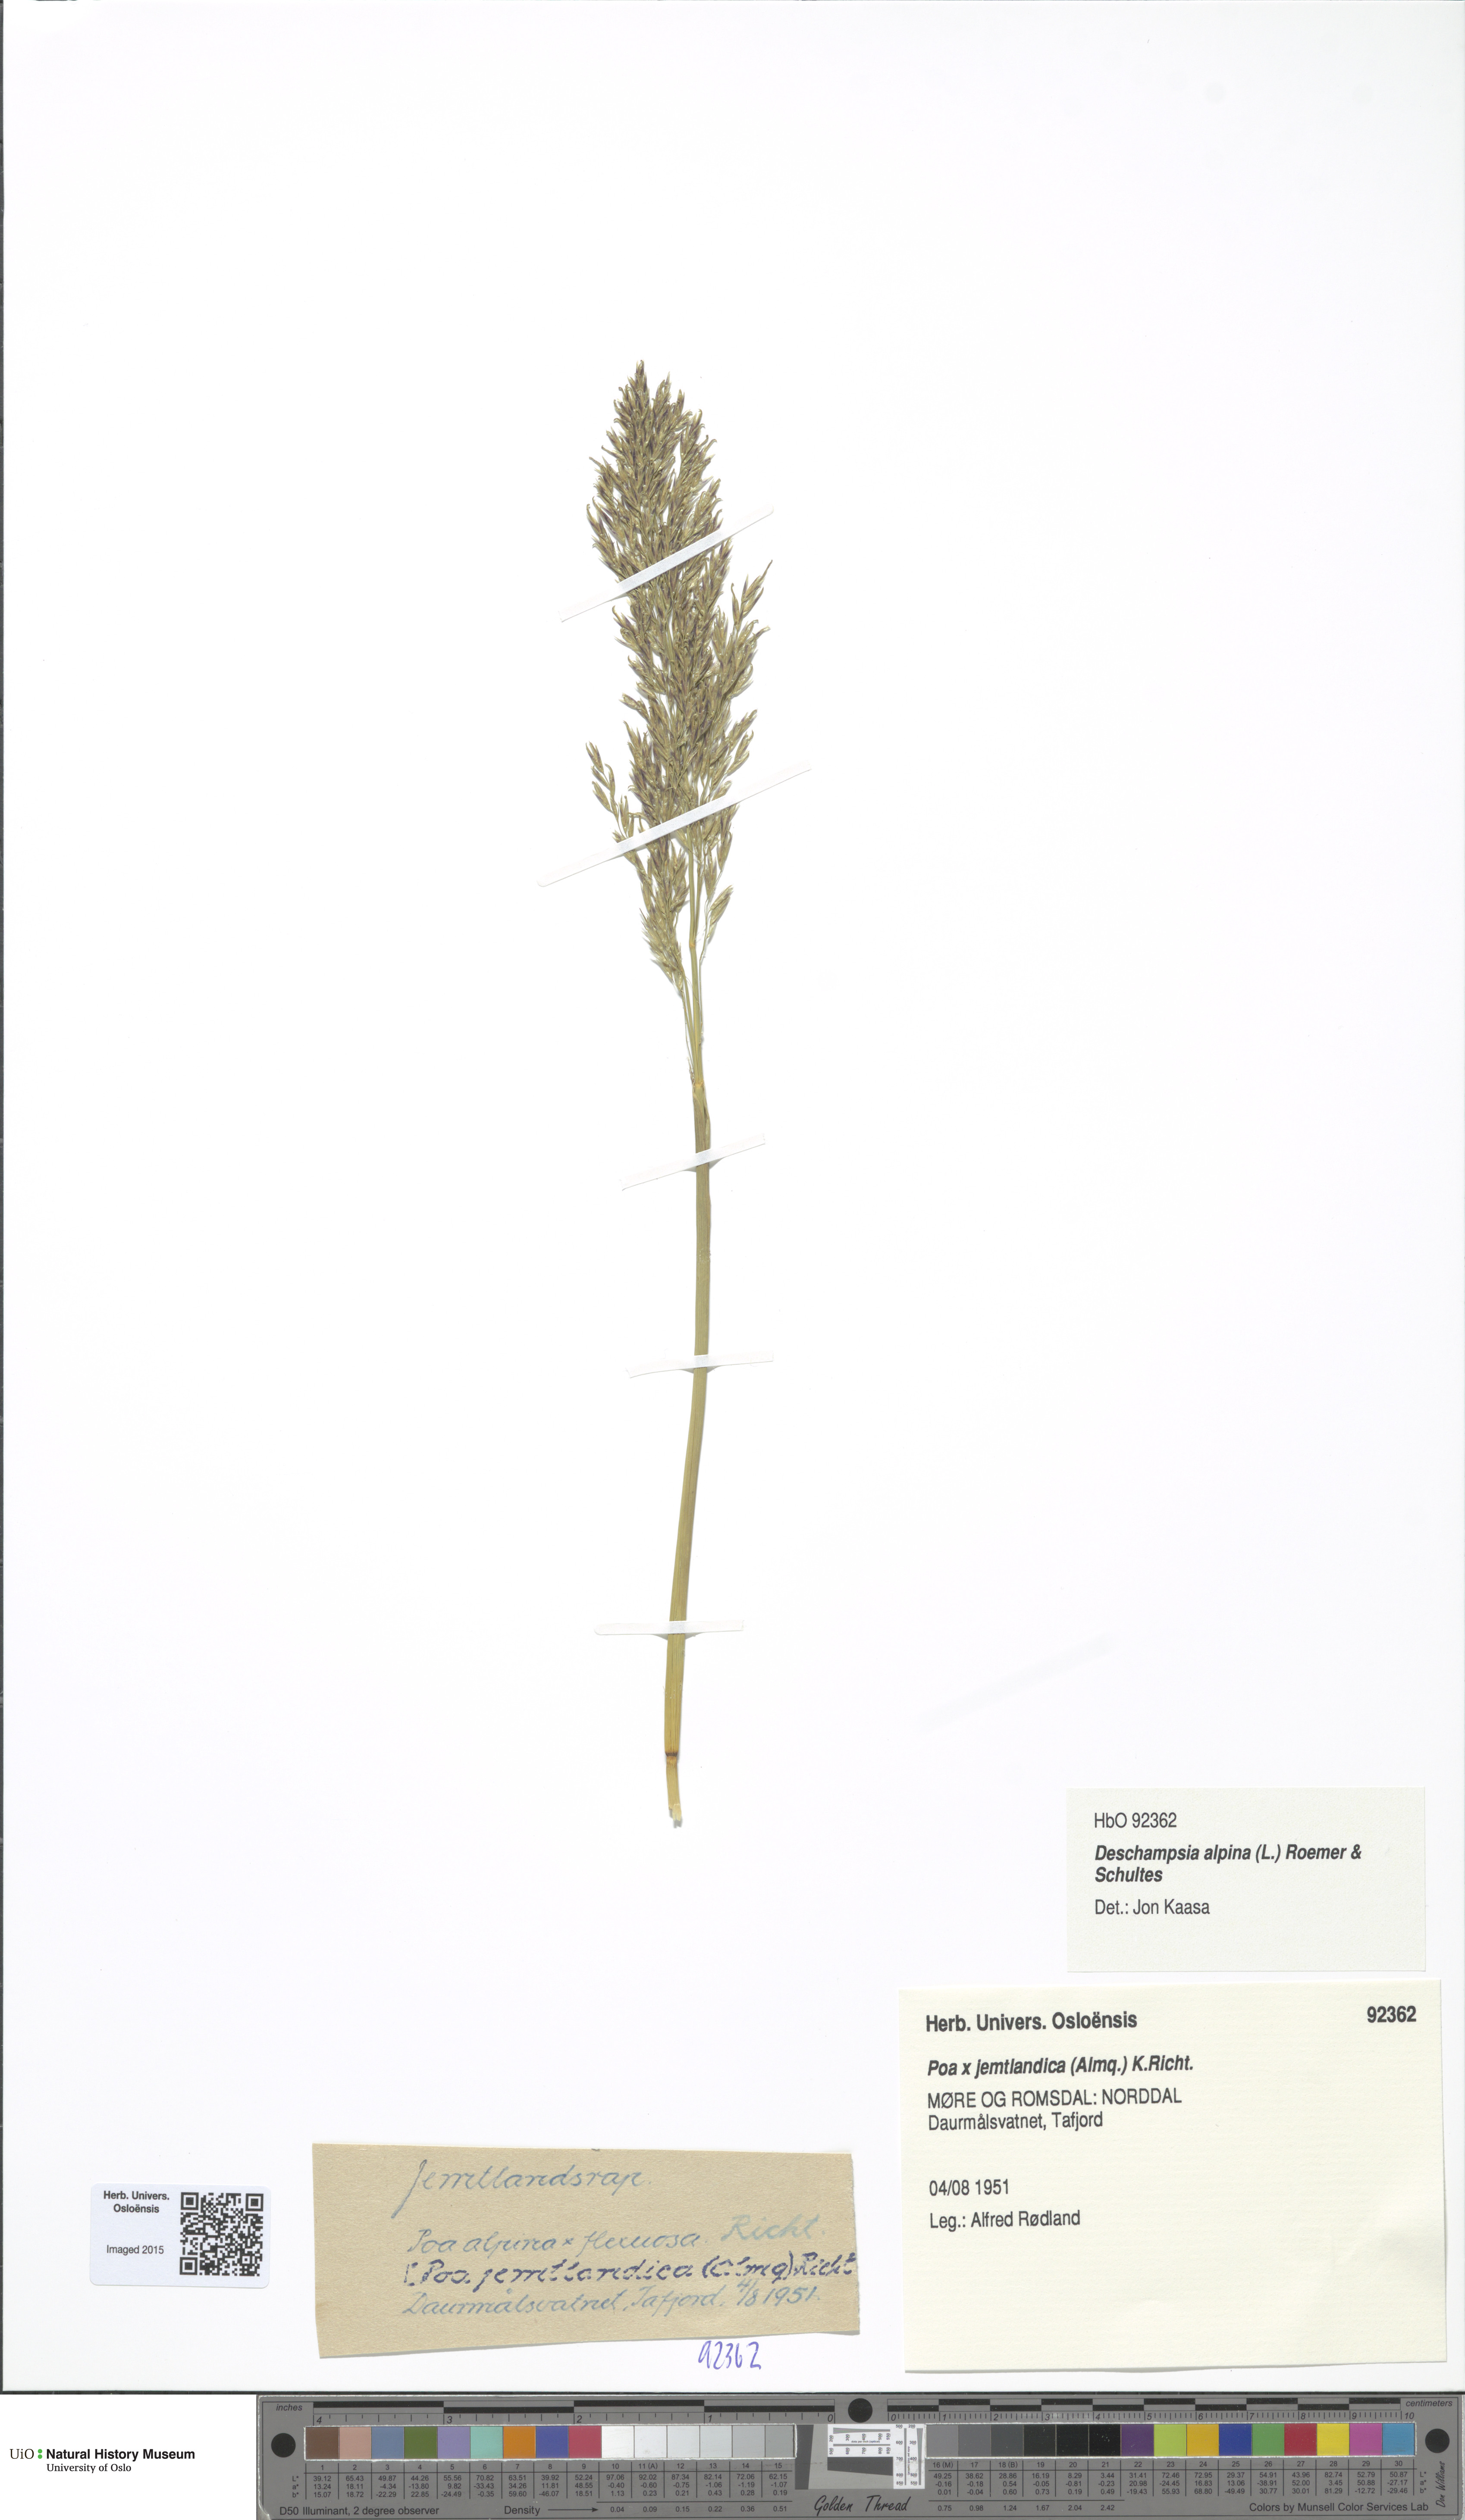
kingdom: Plantae
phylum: Tracheophyta
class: Liliopsida
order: Poales
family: Poaceae
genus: Deschampsia
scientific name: Deschampsia cespitosa
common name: Tufted hair-grass
